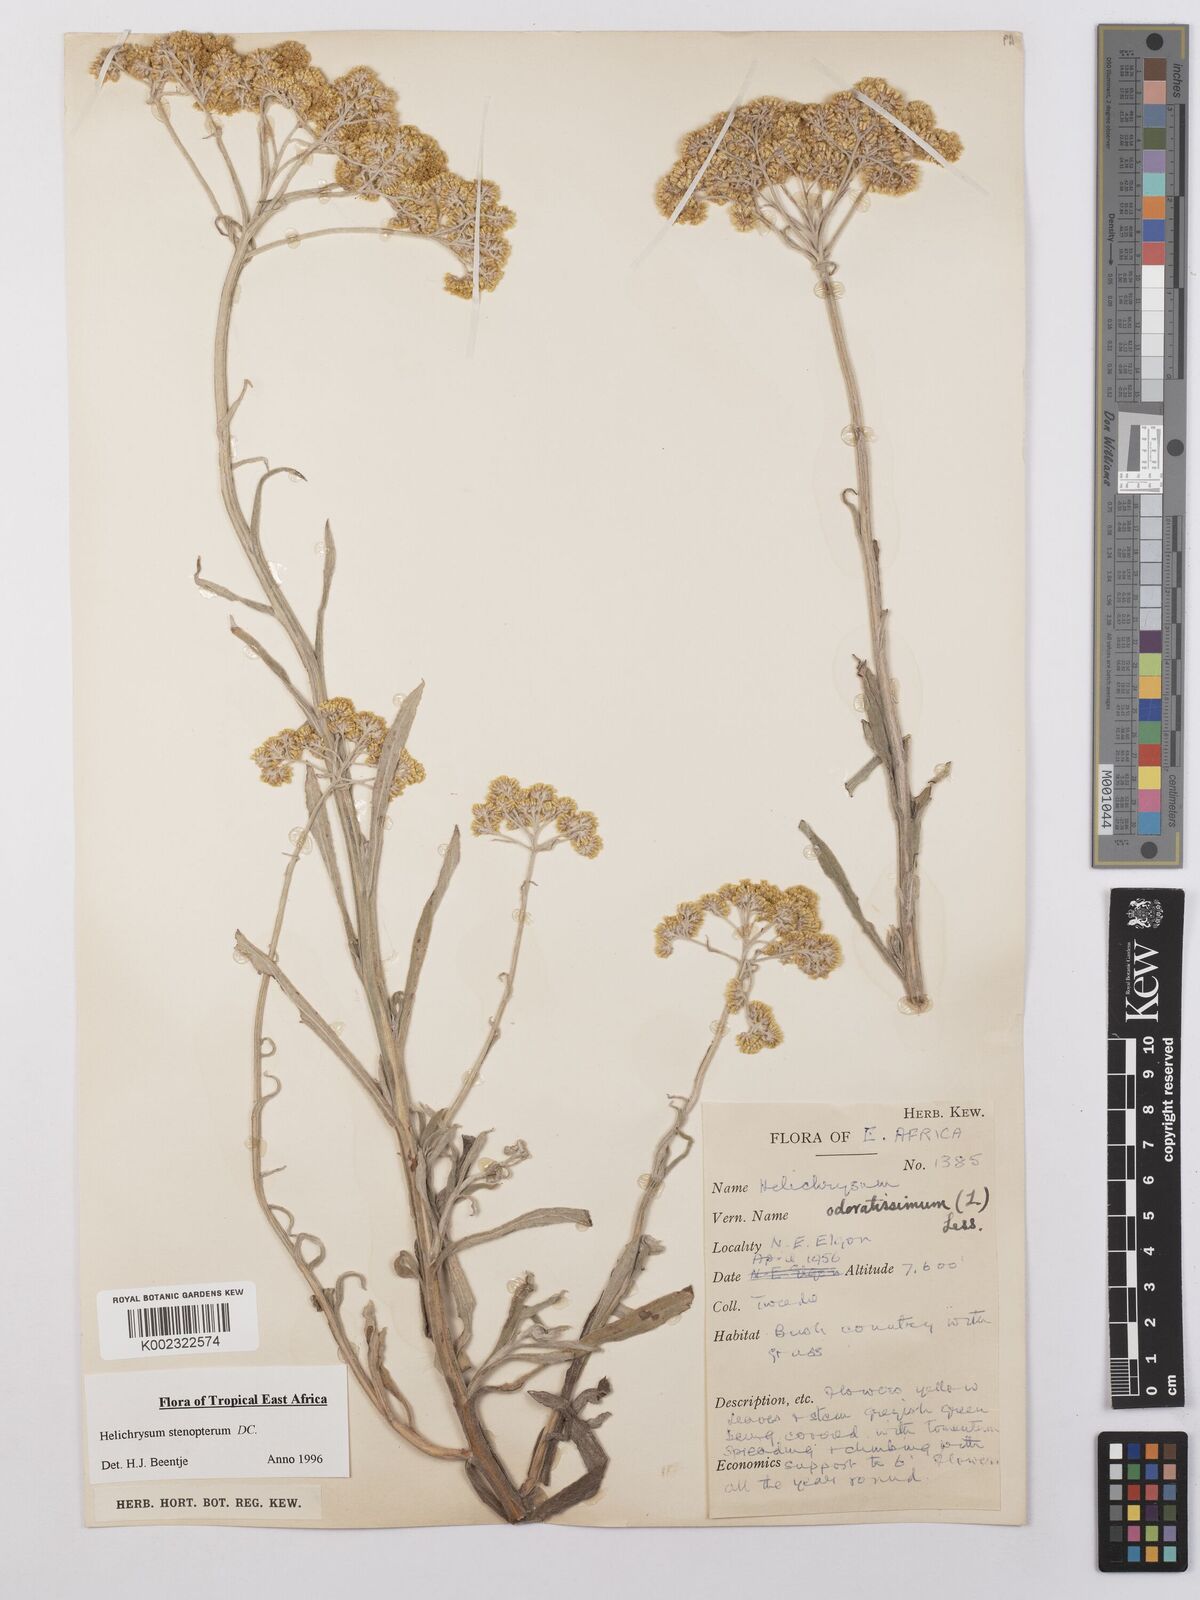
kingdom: Plantae
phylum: Tracheophyta
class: Magnoliopsida
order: Asterales
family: Asteraceae
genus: Helichrysum
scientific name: Helichrysum stenopterum
